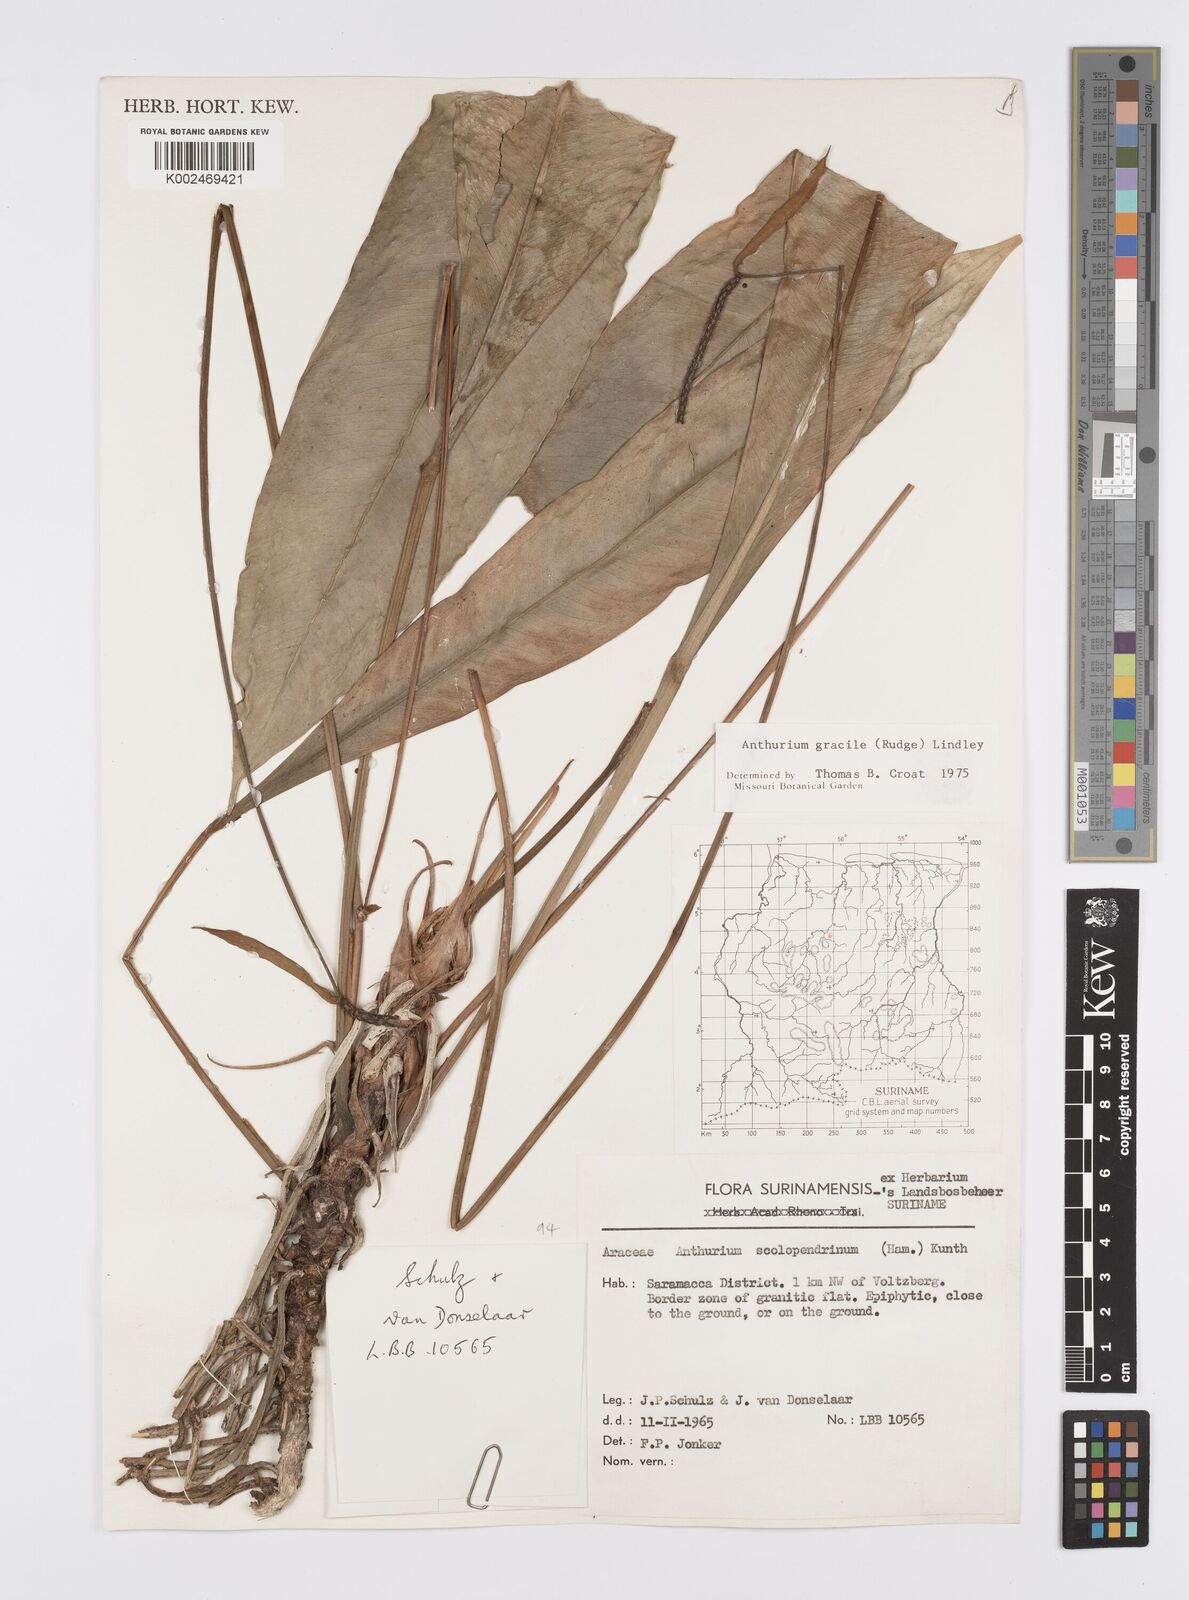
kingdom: Plantae
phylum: Tracheophyta
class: Liliopsida
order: Alismatales
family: Araceae
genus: Anthurium
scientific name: Anthurium gracile
